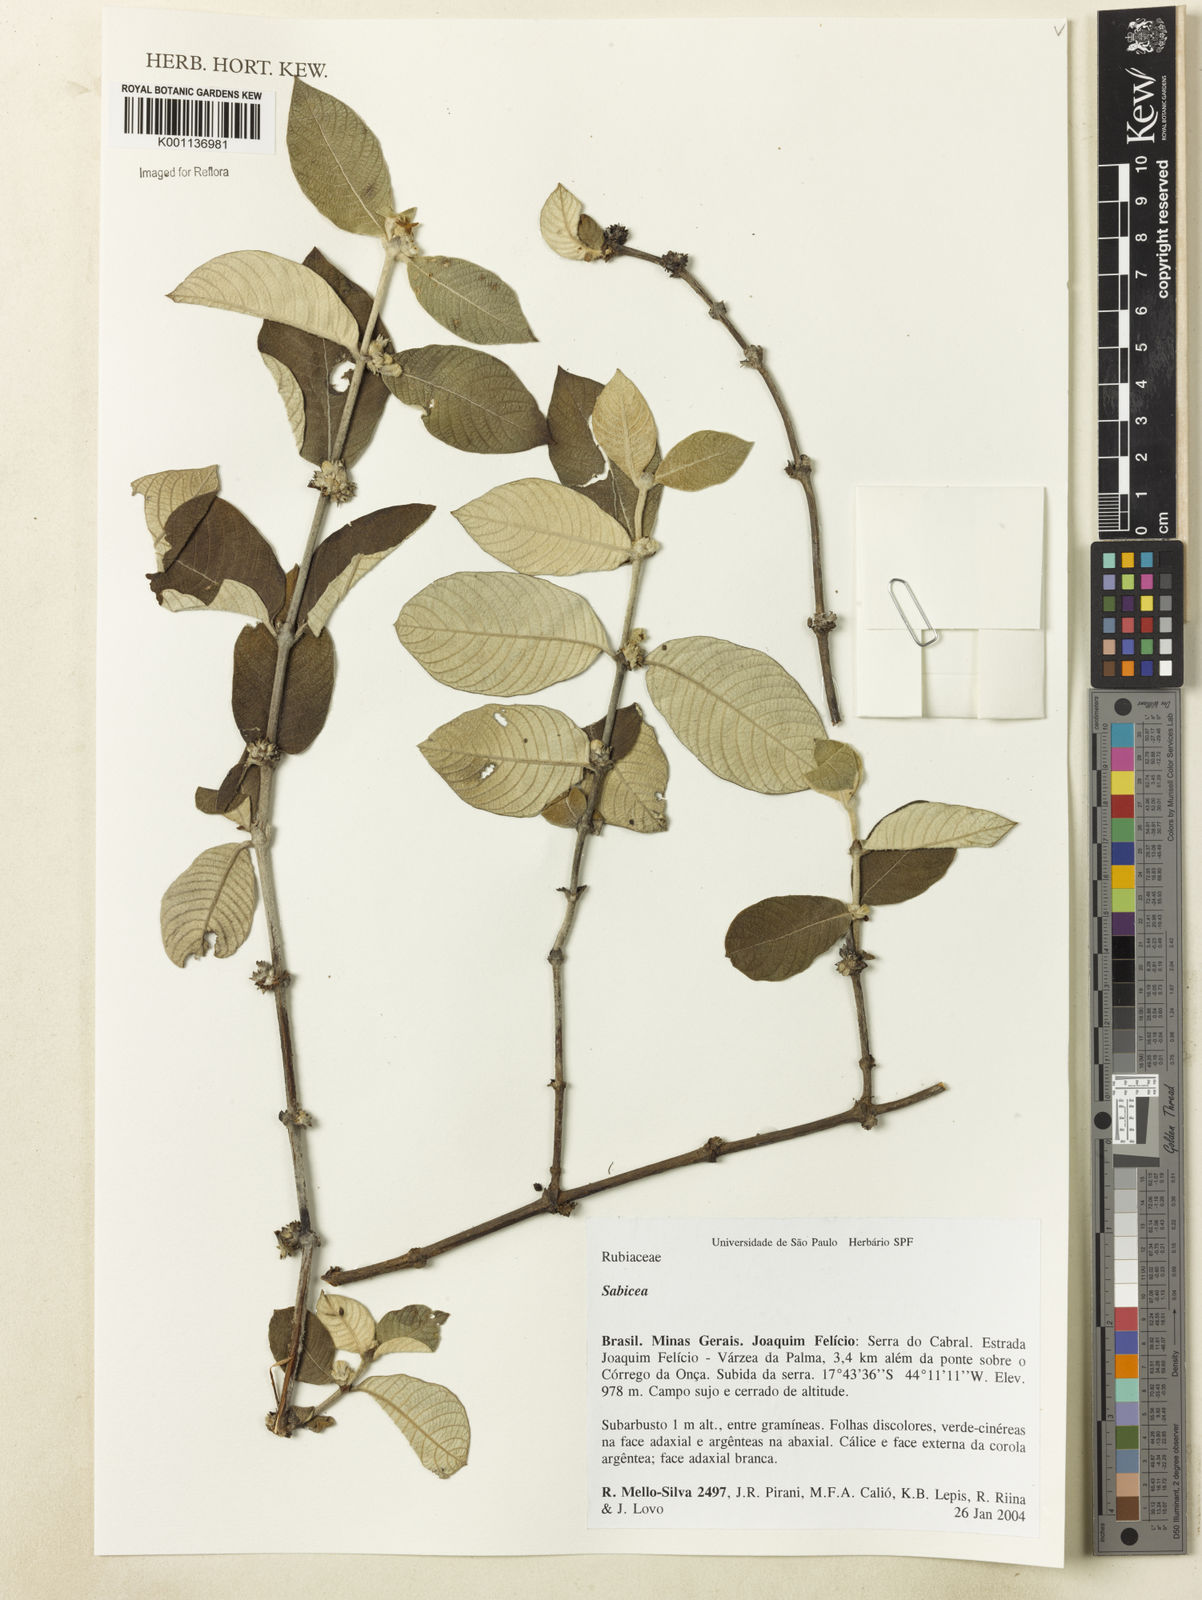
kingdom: Plantae
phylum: Tracheophyta
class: Magnoliopsida
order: Gentianales
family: Rubiaceae
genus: Sabicea
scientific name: Sabicea
